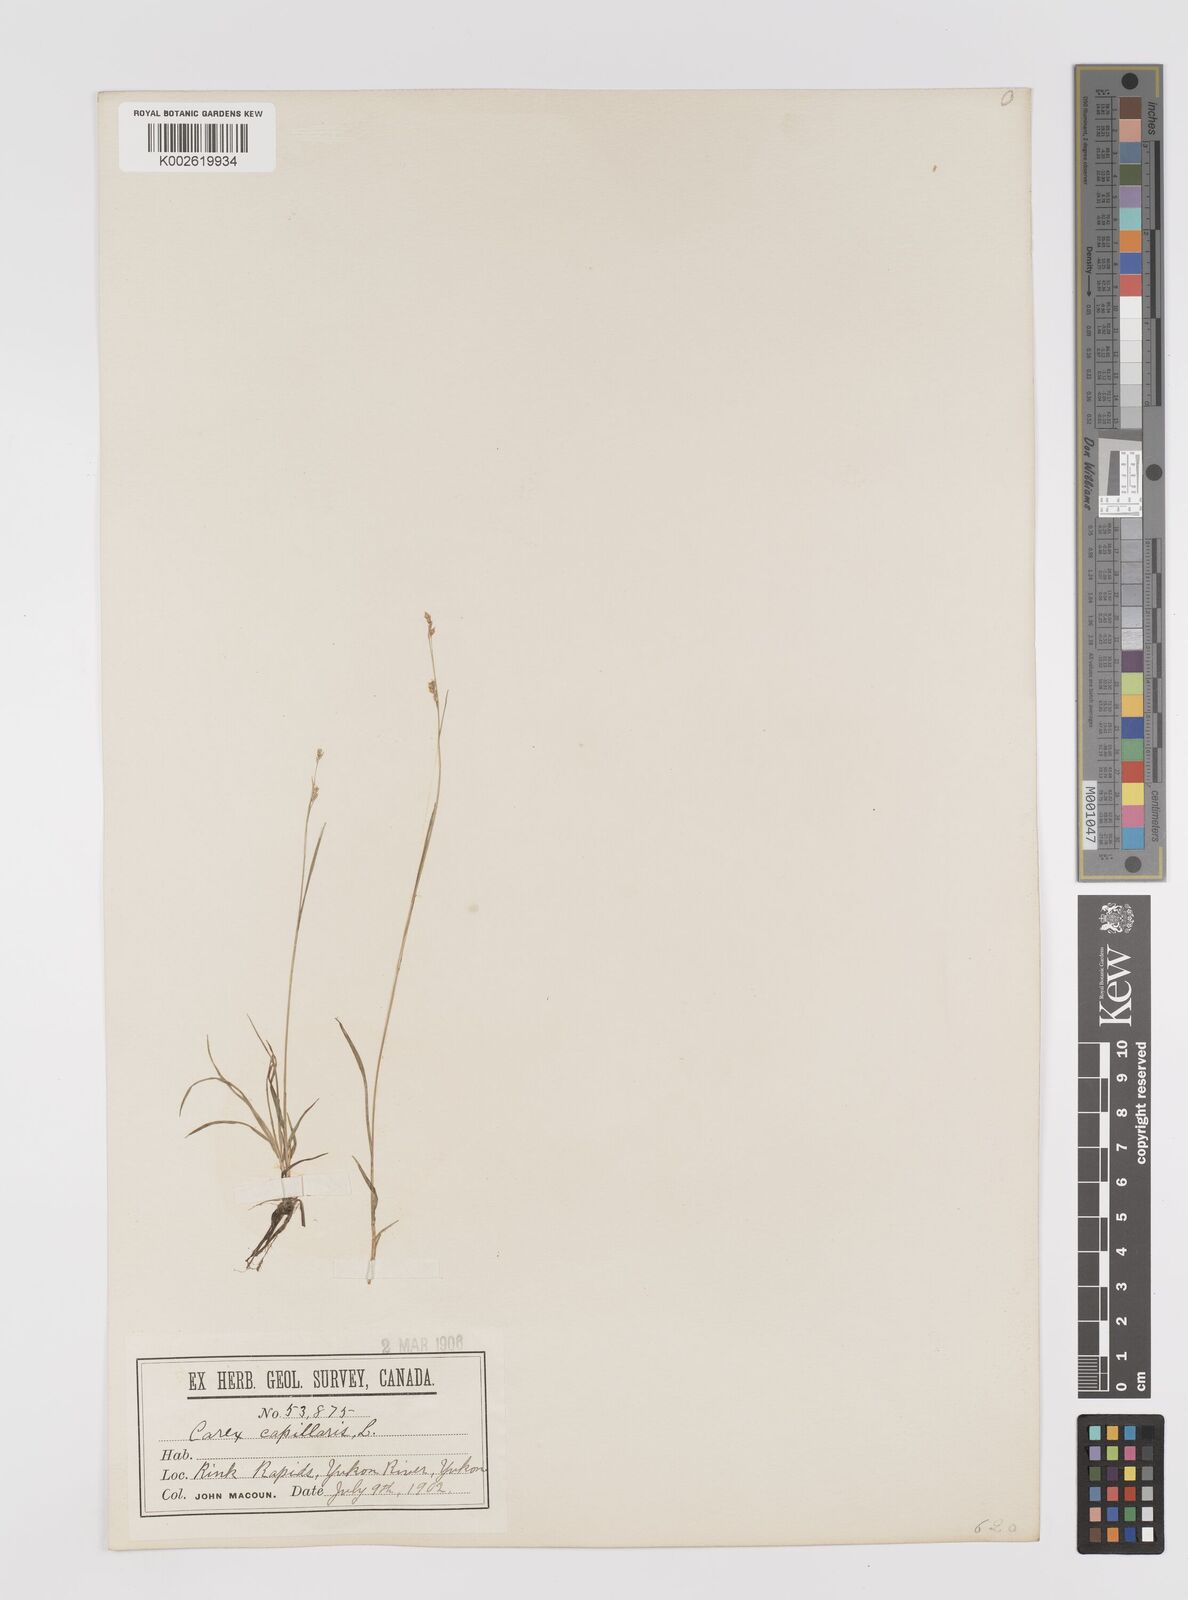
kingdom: Plantae
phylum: Tracheophyta
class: Liliopsida
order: Poales
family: Cyperaceae
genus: Carex
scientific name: Carex capillaris
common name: Hair sedge
